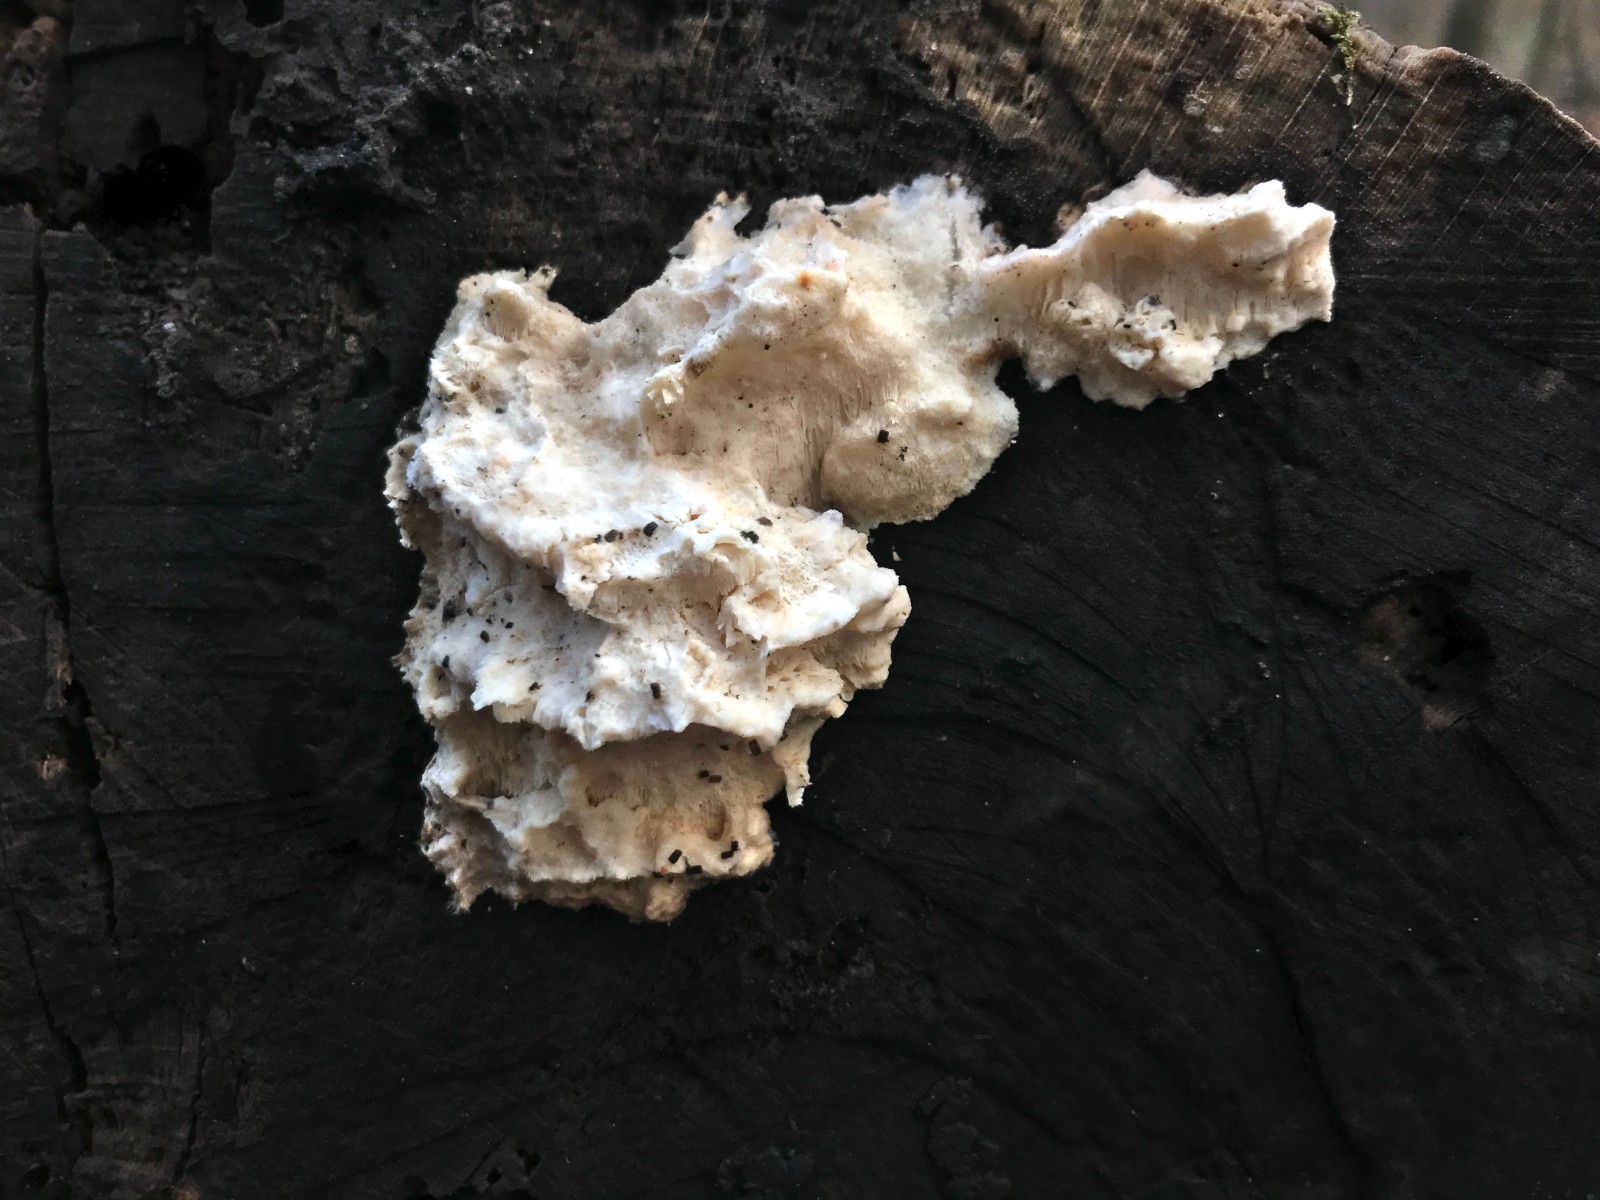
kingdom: Fungi
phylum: Basidiomycota
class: Agaricomycetes
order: Polyporales
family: Incrustoporiaceae
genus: Tyromyces
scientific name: Tyromyces lacteus
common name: mælkehvid kødporesvamp
